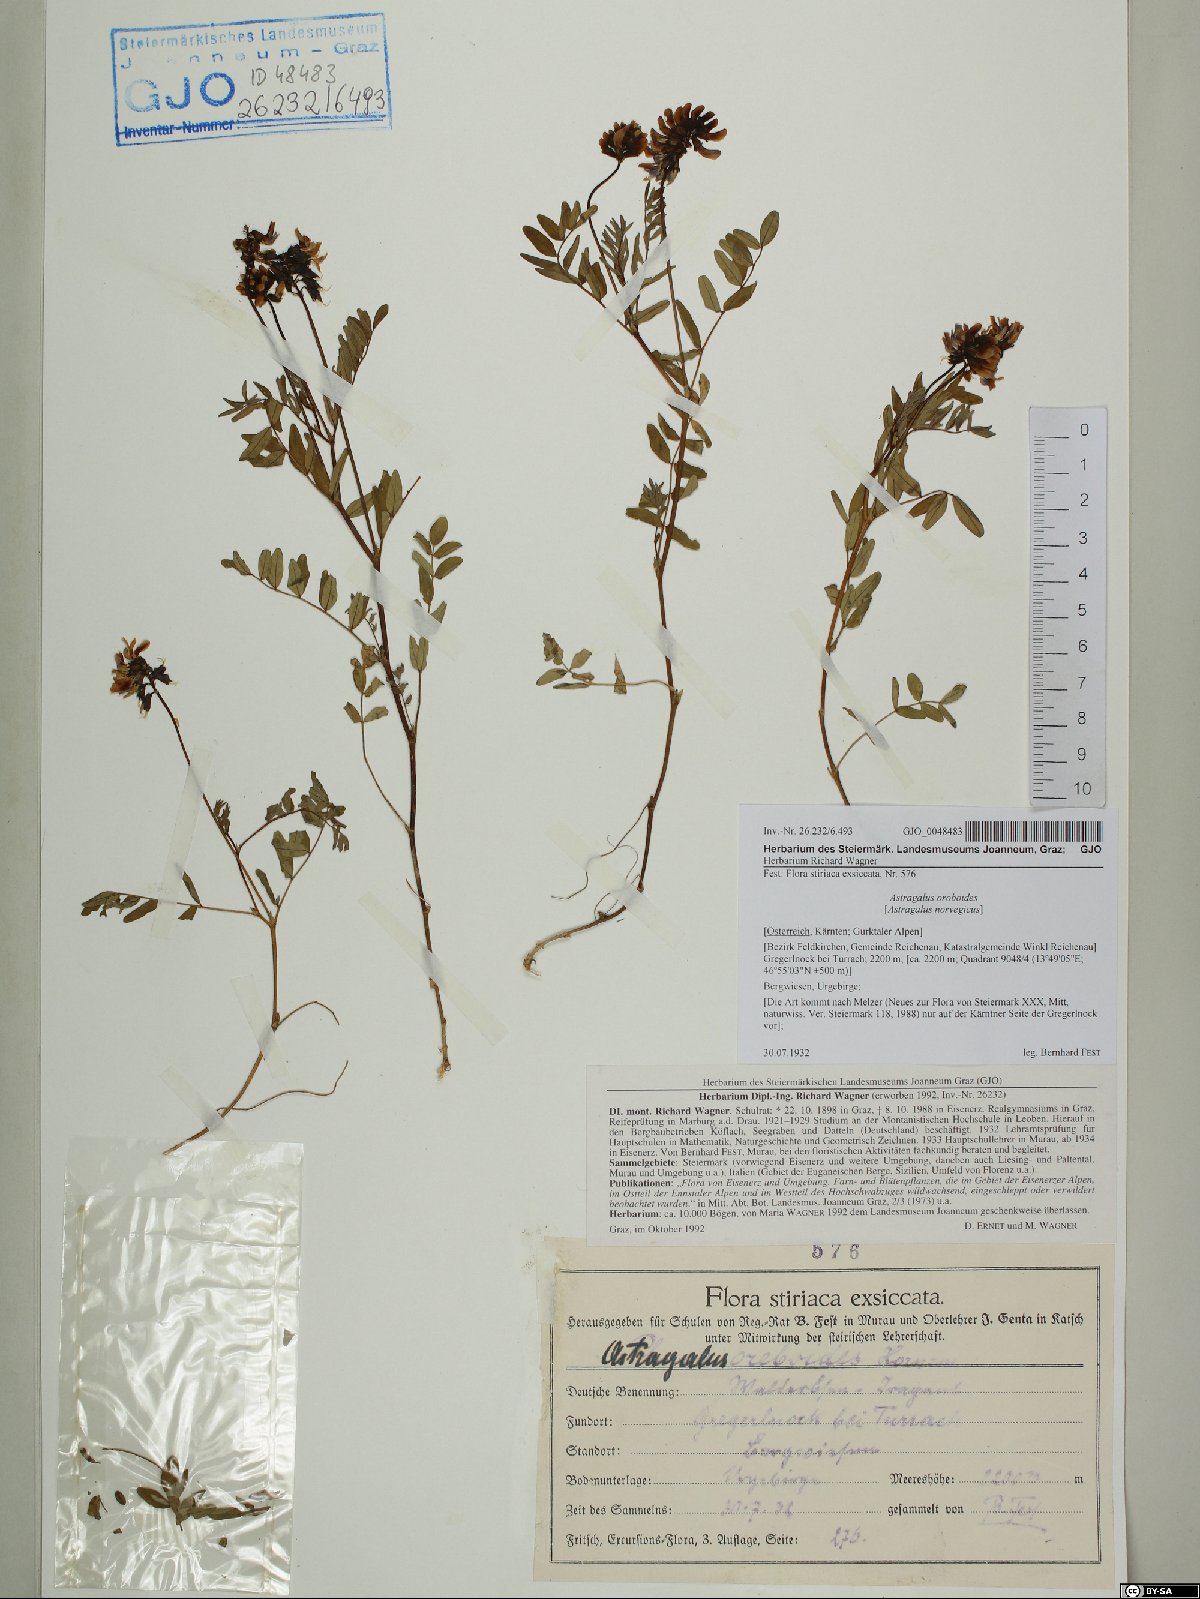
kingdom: Plantae
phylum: Tracheophyta
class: Magnoliopsida
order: Fabales
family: Fabaceae
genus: Astragalus
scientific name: Astragalus norvegicus
